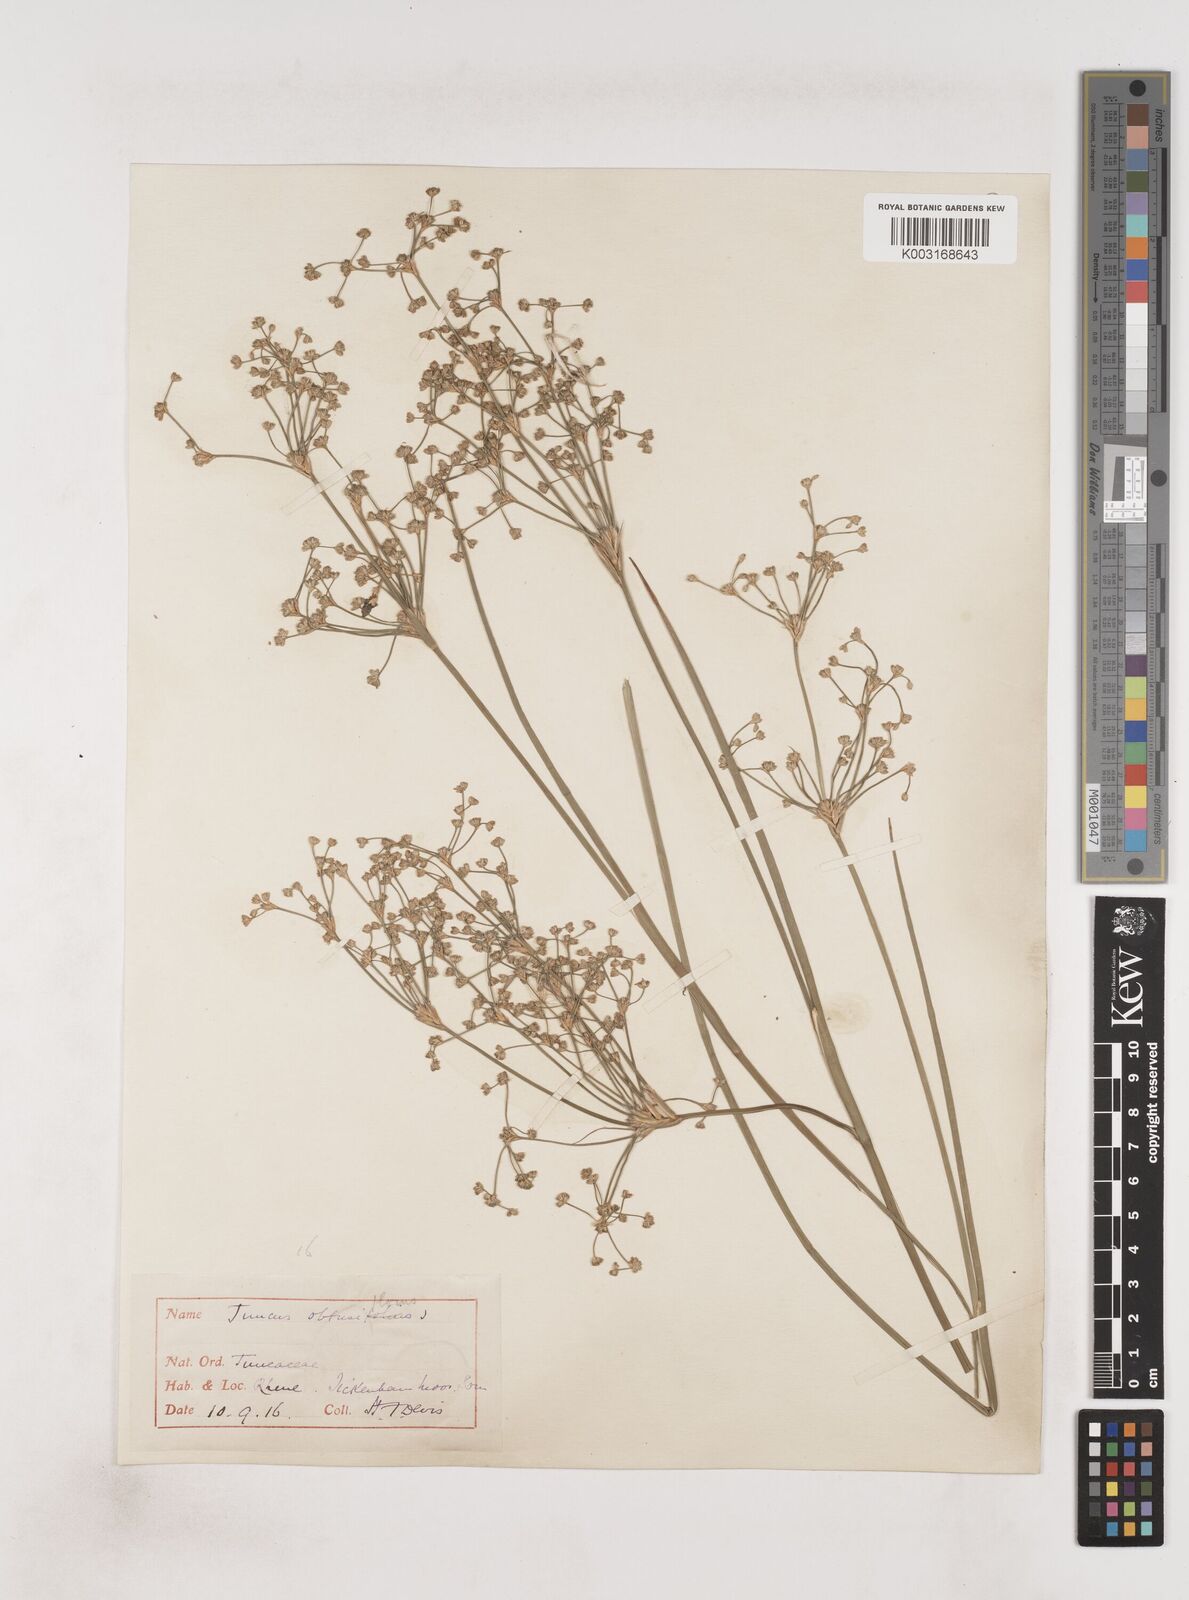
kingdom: Plantae
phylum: Tracheophyta
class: Liliopsida
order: Poales
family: Juncaceae
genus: Juncus
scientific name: Juncus subnodulosus
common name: Blunt-flowered rush
